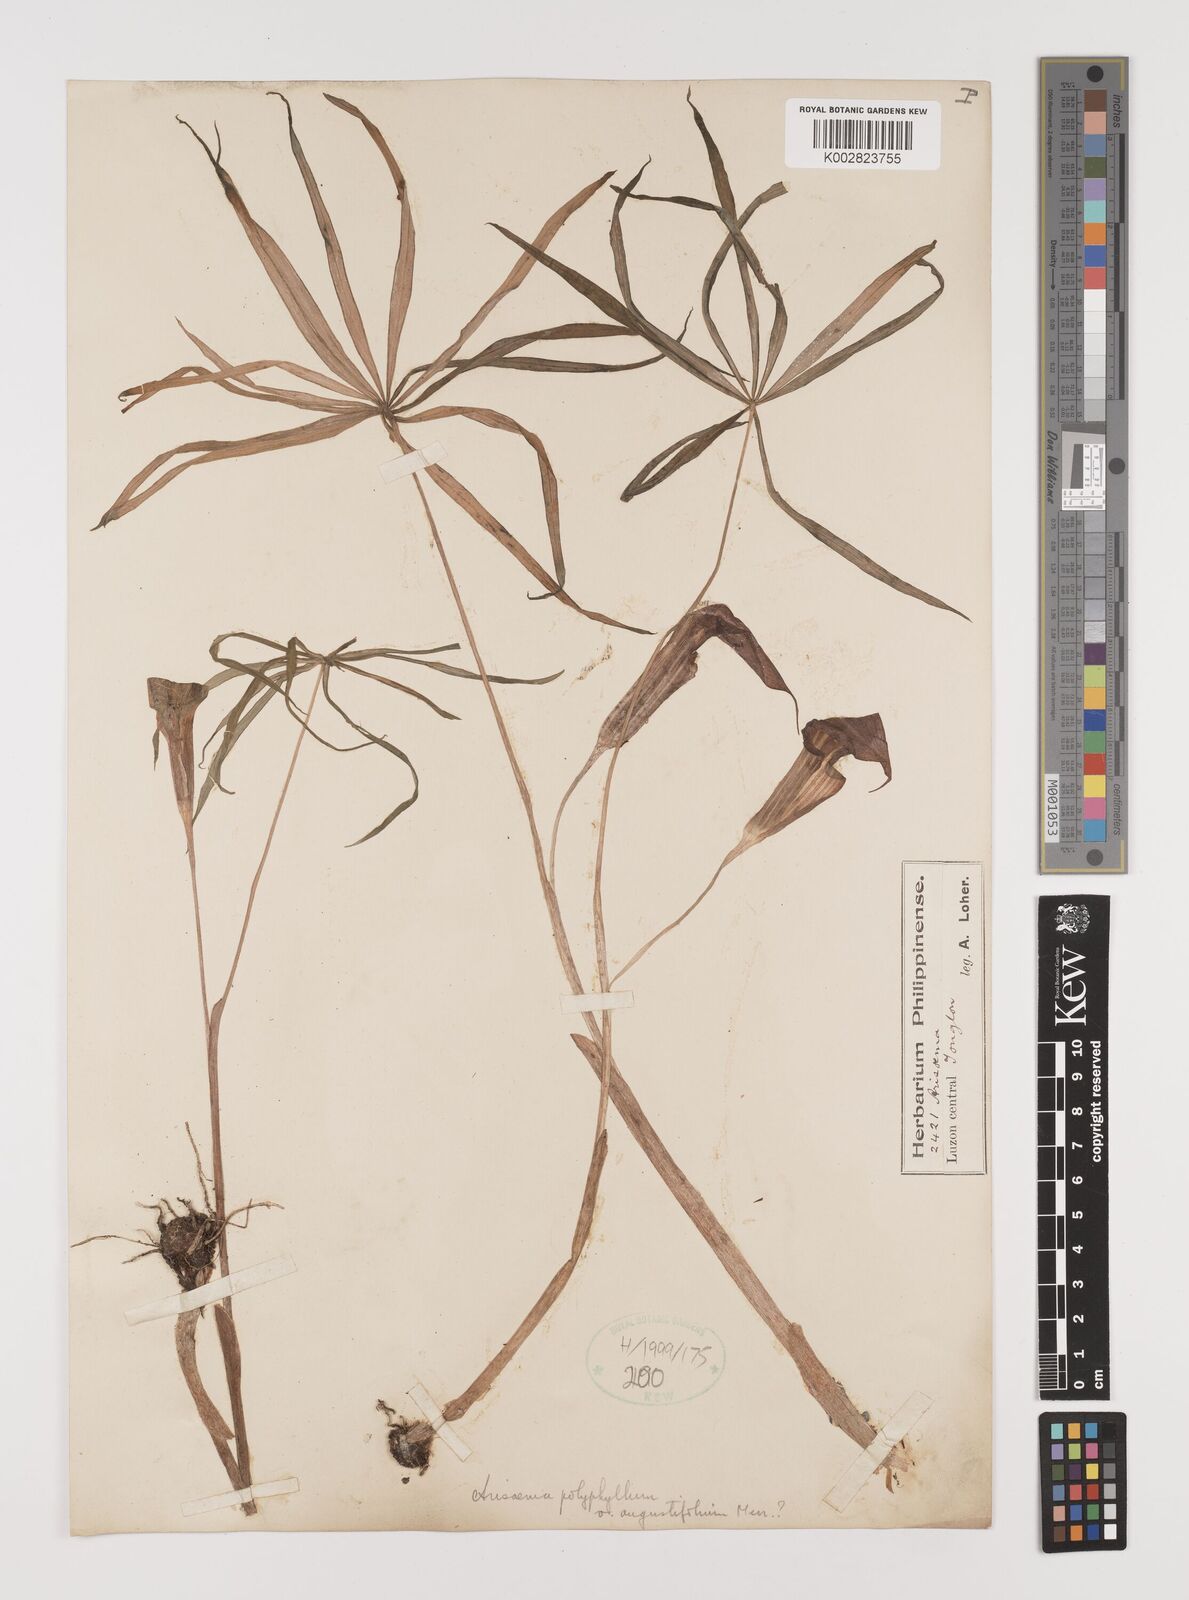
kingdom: Plantae
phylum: Tracheophyta
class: Liliopsida
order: Alismatales
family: Araceae
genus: Arisaema
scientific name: Arisaema polyphyllum
